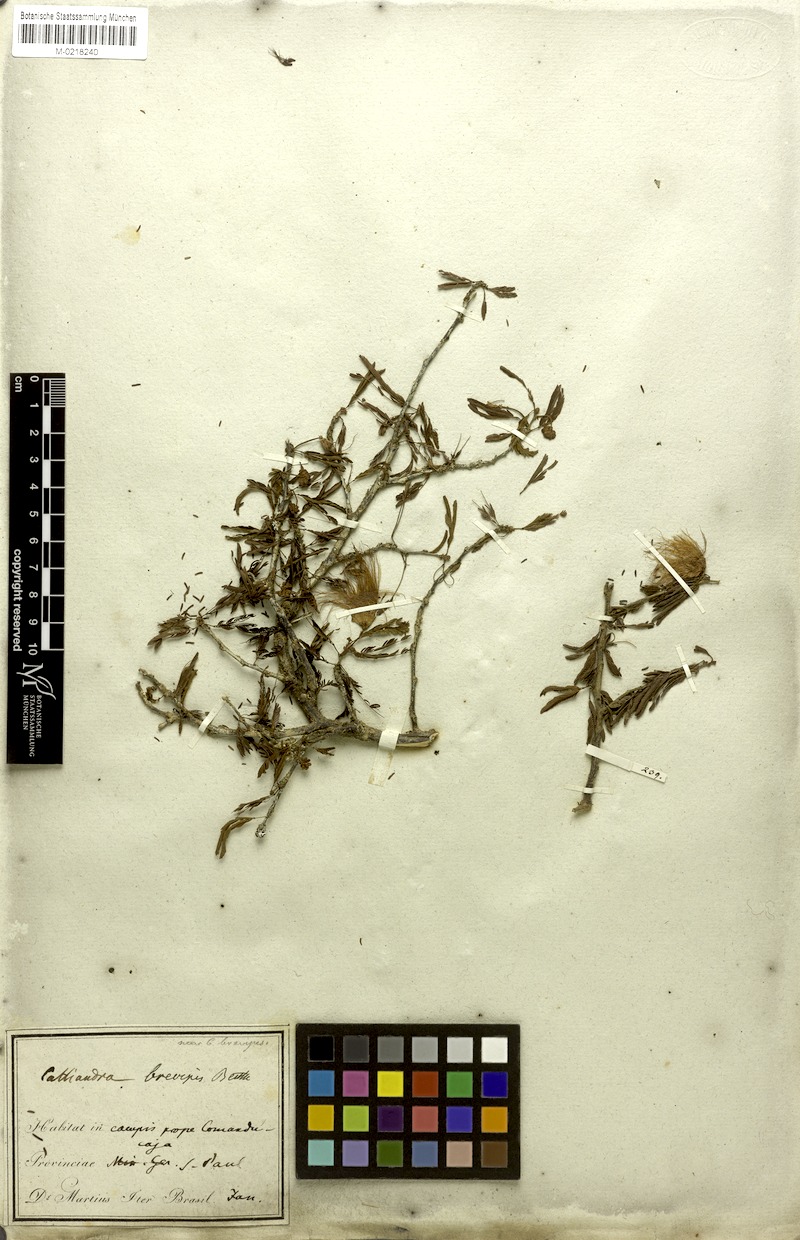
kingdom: Plantae
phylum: Tracheophyta
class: Magnoliopsida
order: Fabales
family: Fabaceae
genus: Calliandra
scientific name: Calliandra selloi
